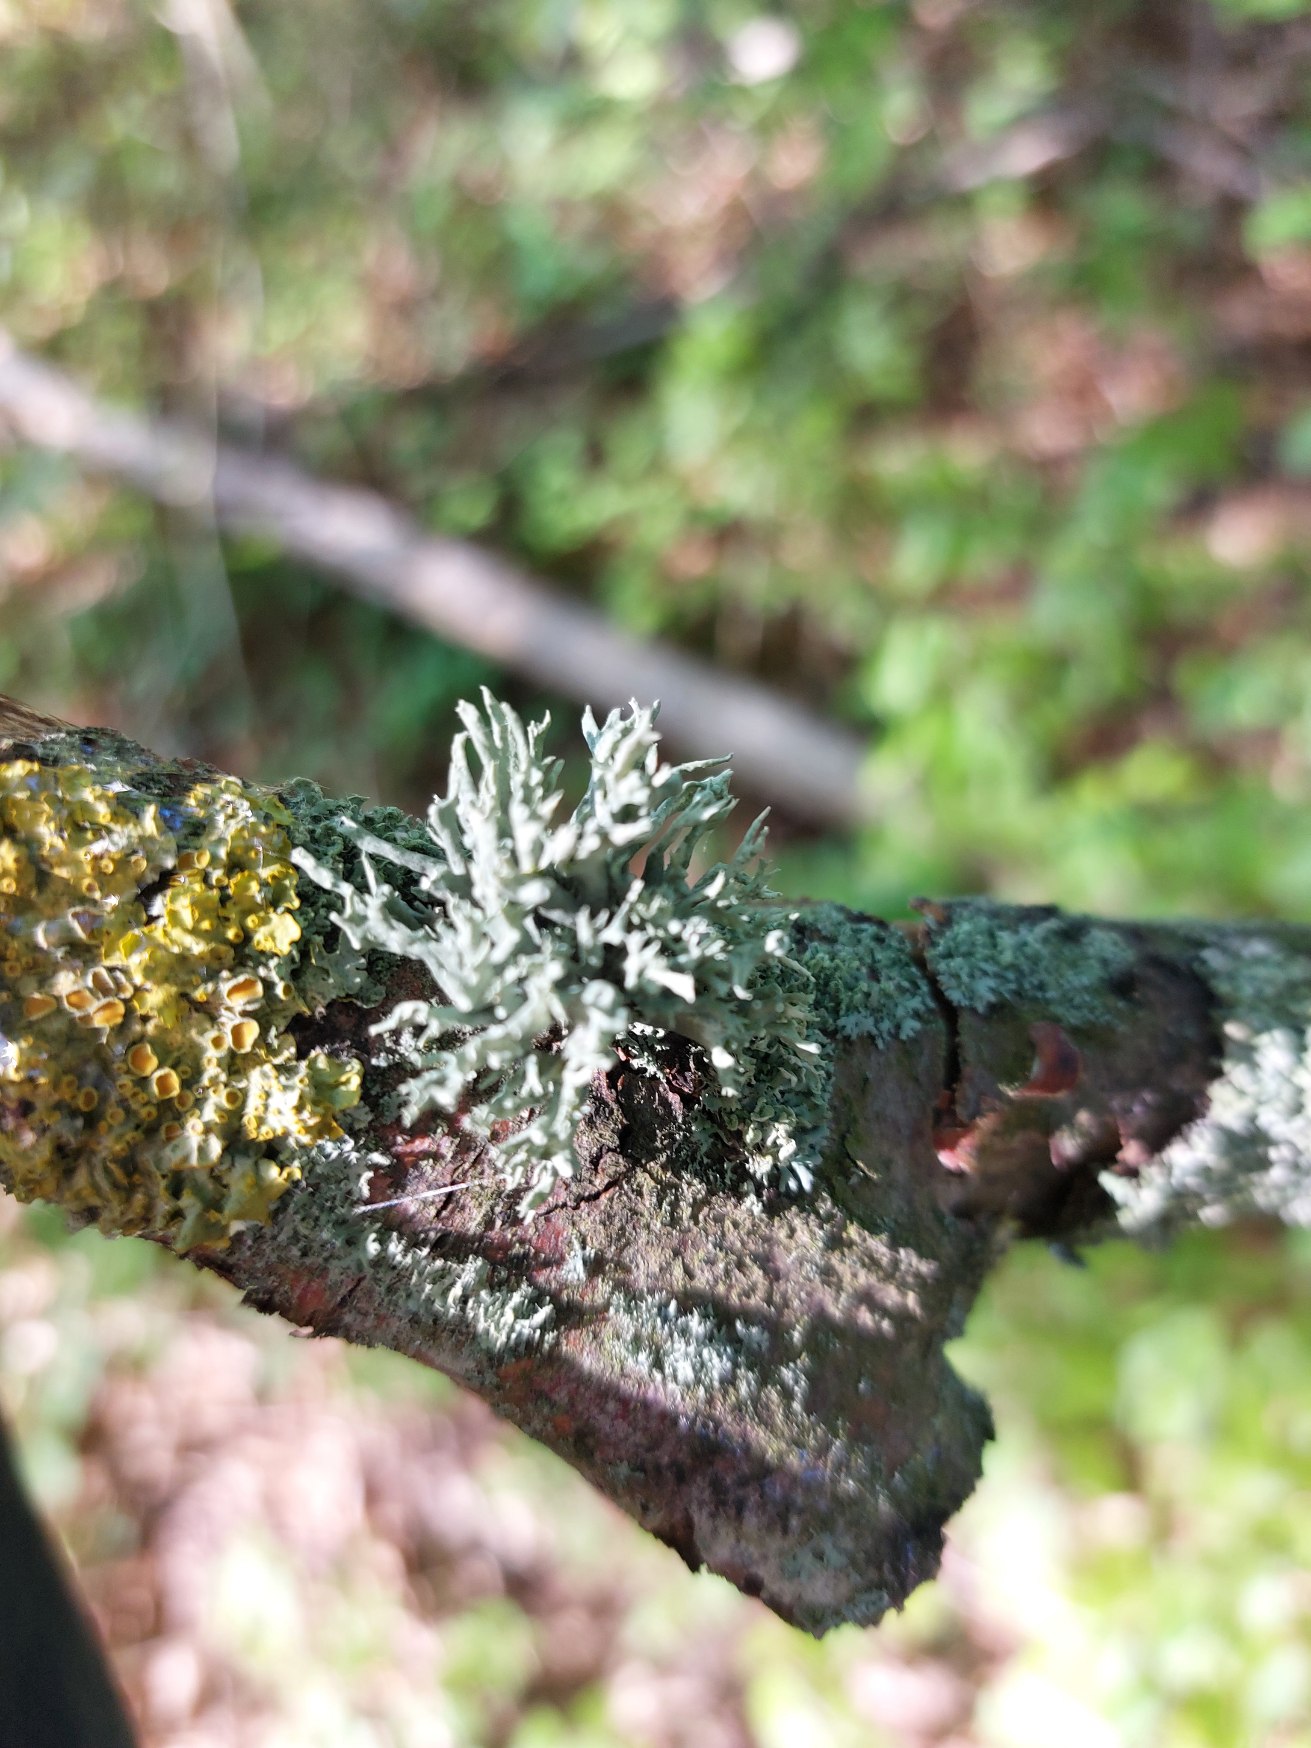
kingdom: Fungi
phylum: Ascomycota
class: Lecanoromycetes
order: Lecanorales
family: Ramalinaceae
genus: Ramalina
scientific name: Ramalina fastigiata
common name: Tue-grenlav
